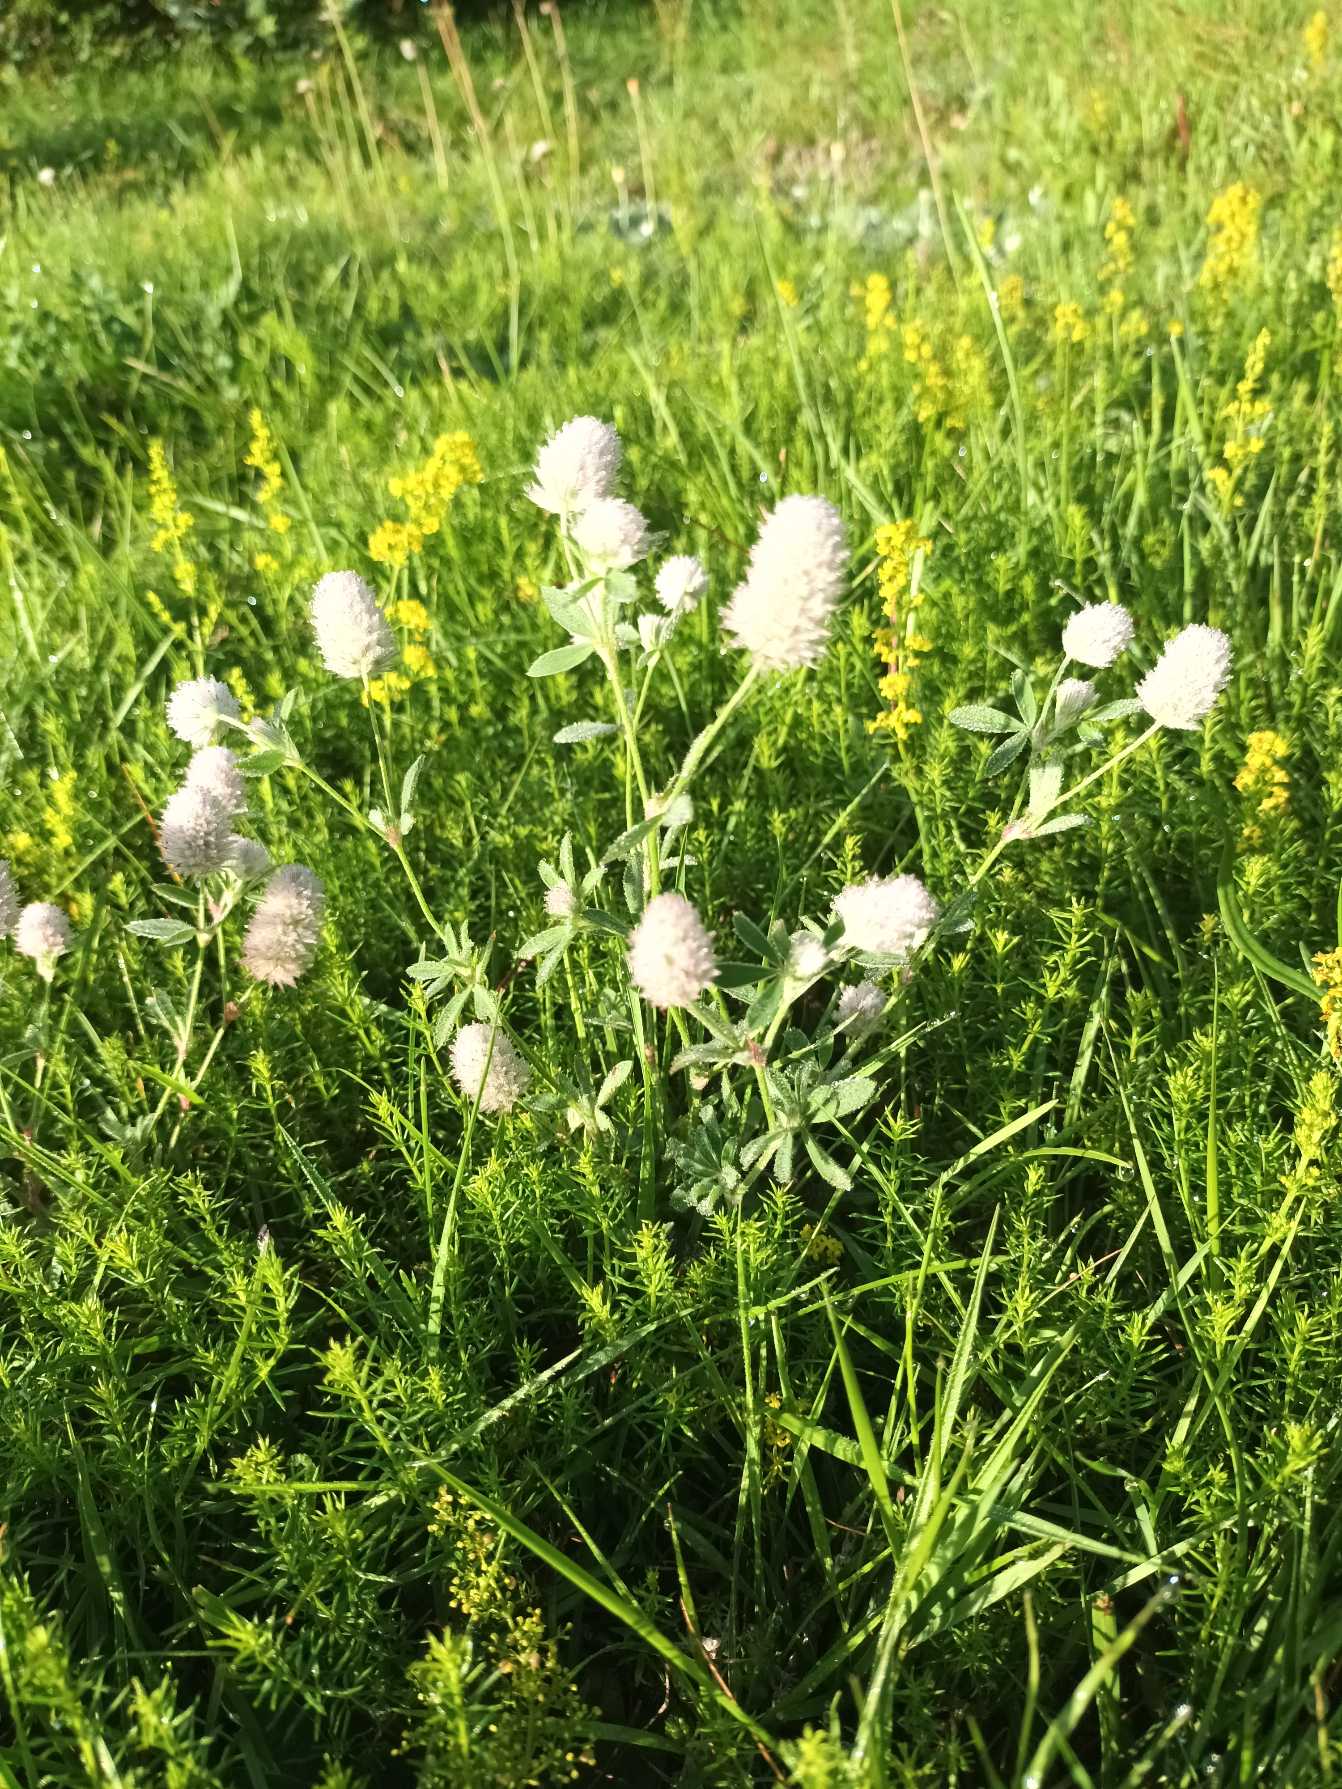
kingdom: Plantae
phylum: Tracheophyta
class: Magnoliopsida
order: Fabales
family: Fabaceae
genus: Trifolium
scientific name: Trifolium arvense
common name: Hare-kløver
